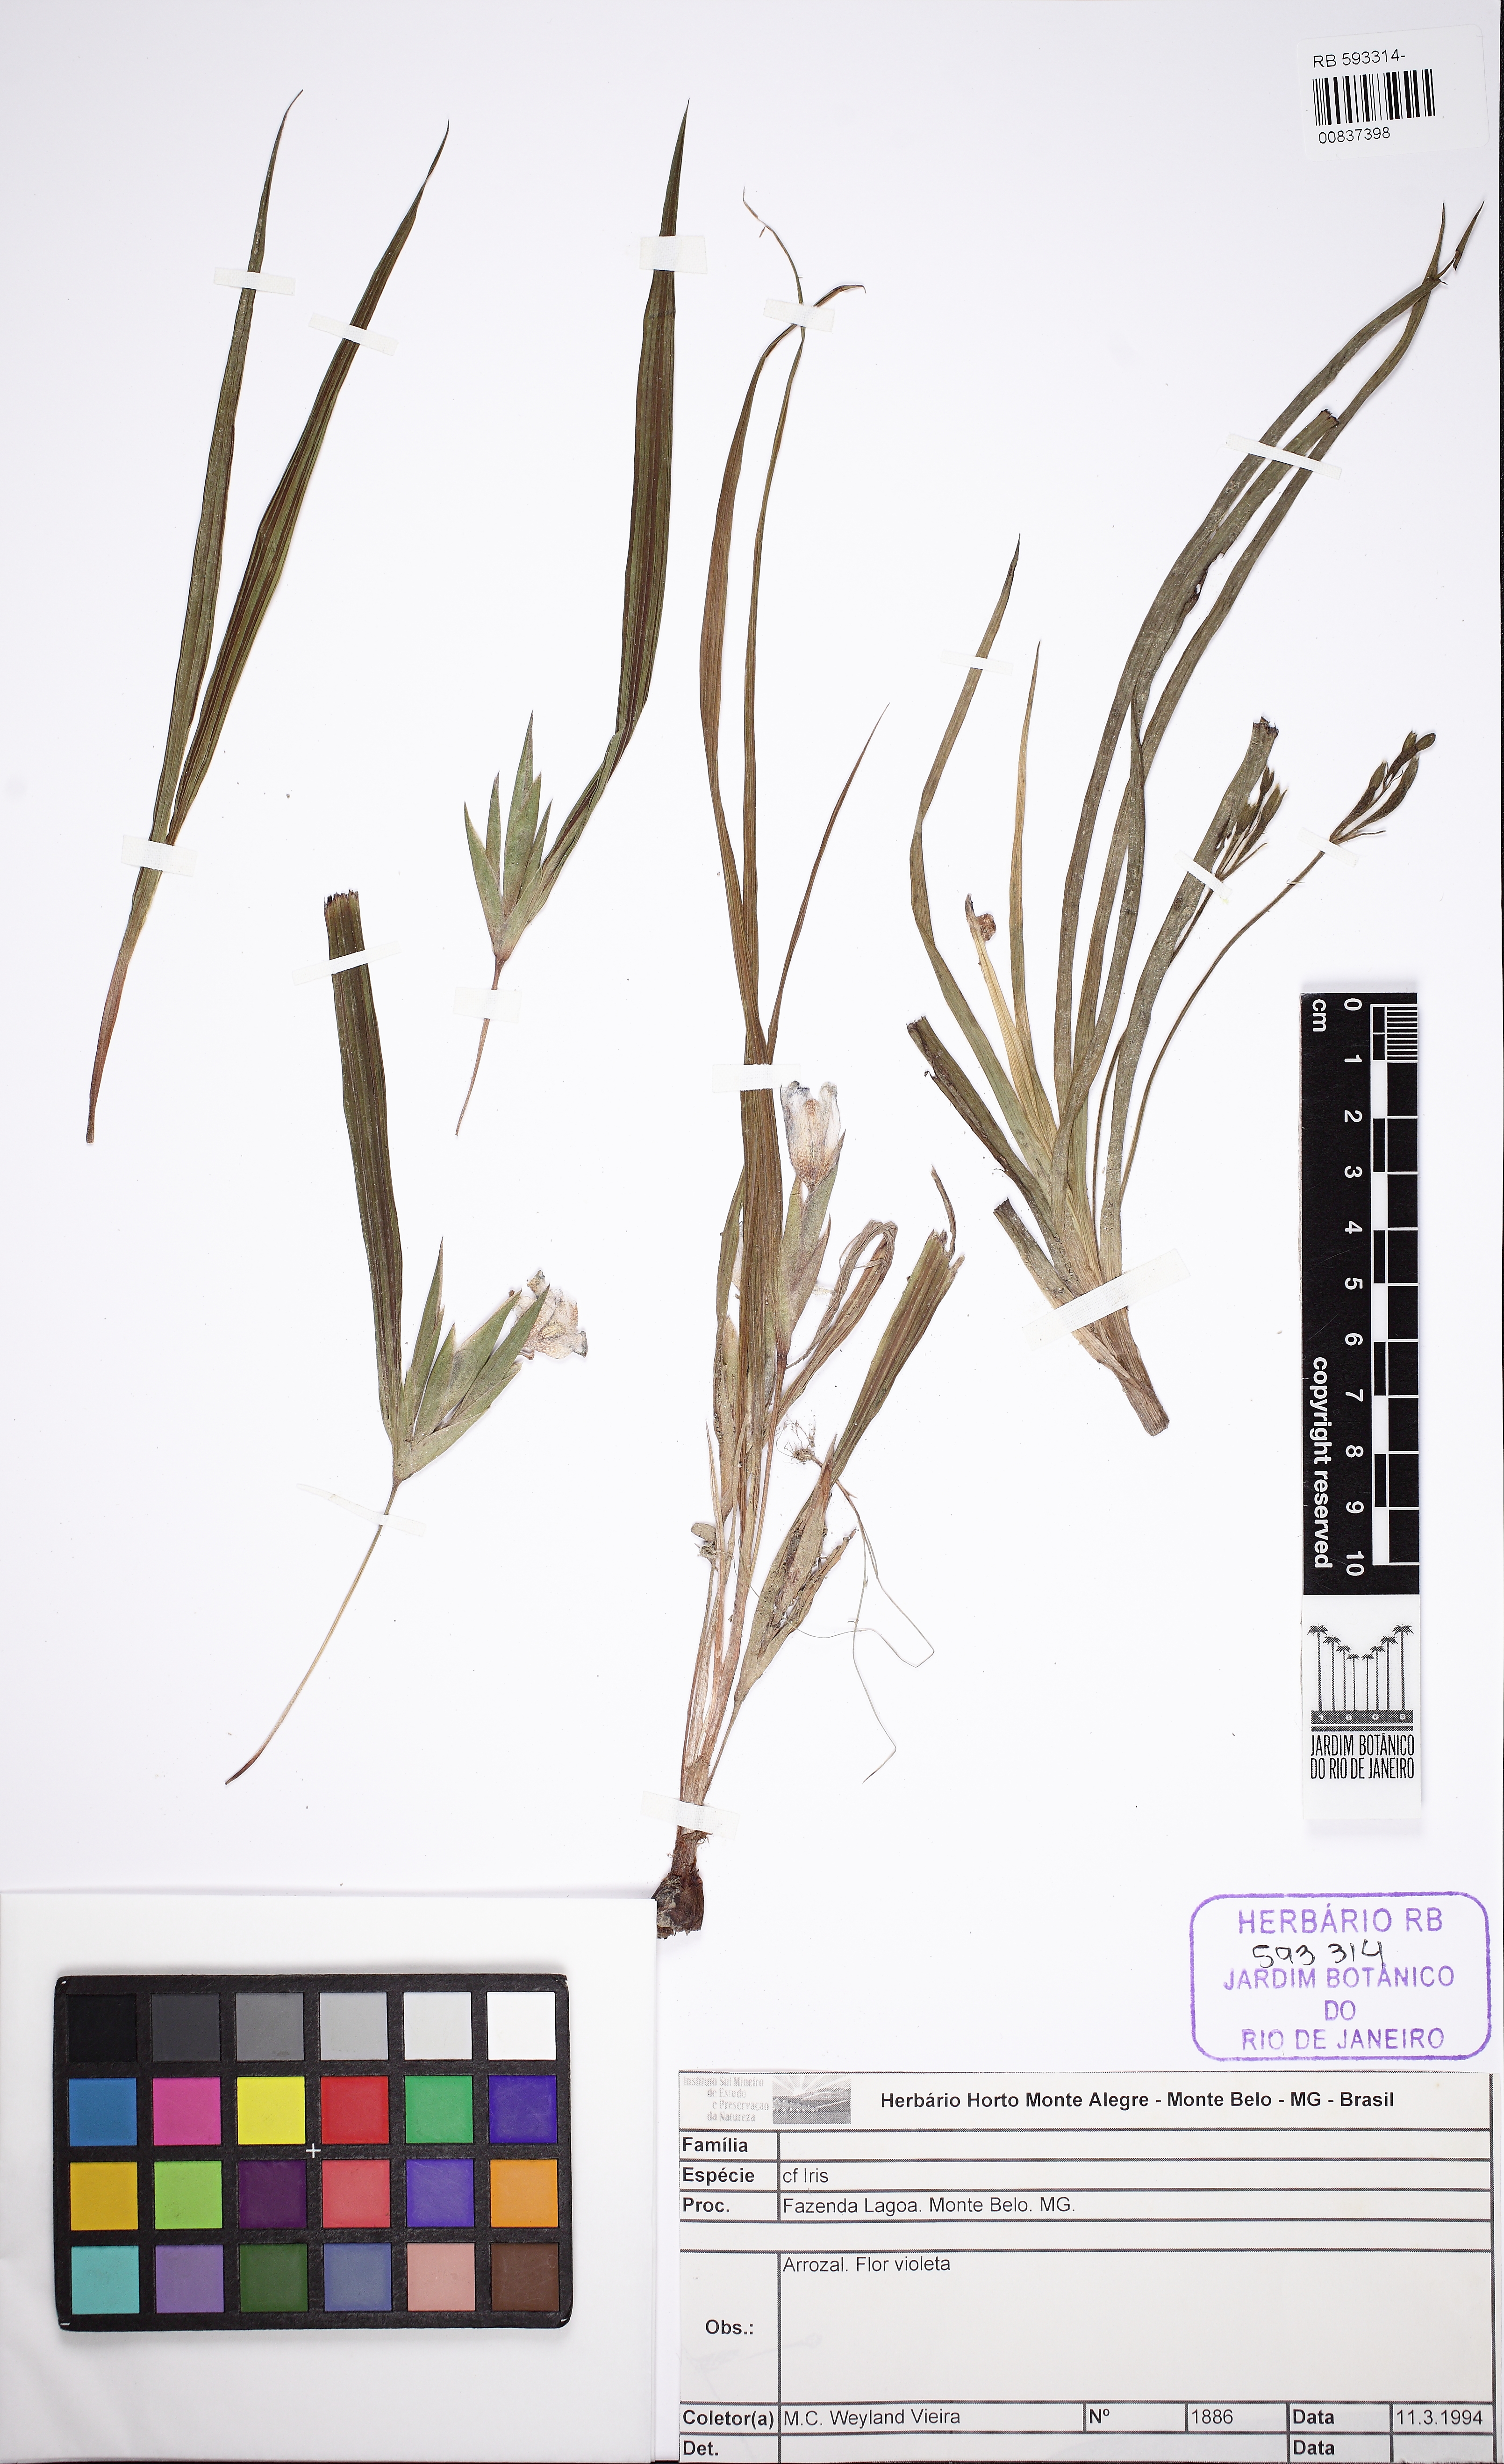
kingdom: Plantae
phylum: Tracheophyta
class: Liliopsida
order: Asparagales
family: Iridaceae
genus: Iris
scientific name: Iris
